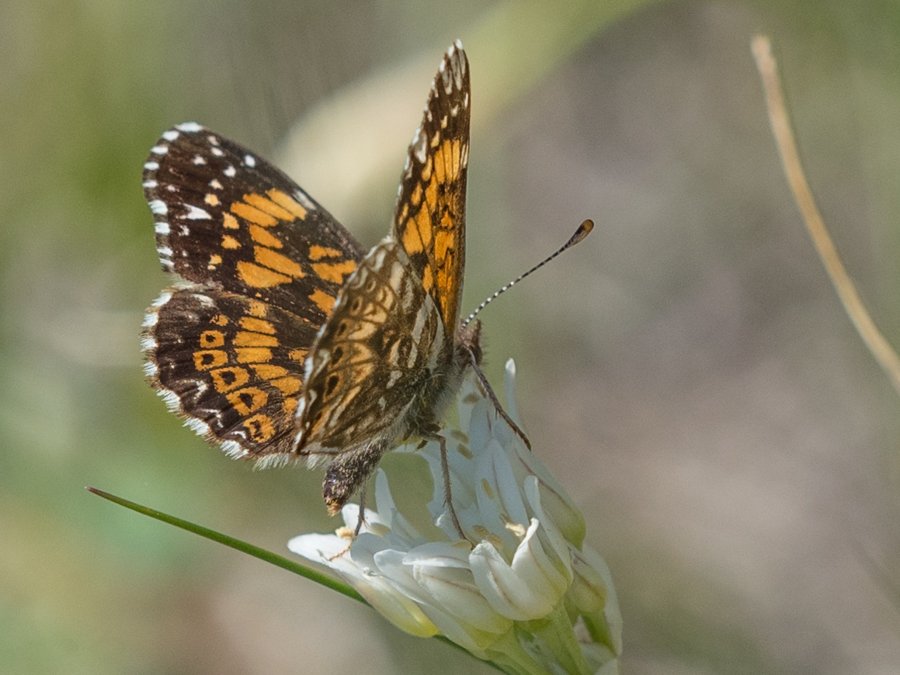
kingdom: Animalia
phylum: Arthropoda
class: Insecta
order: Lepidoptera
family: Nymphalidae
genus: Chlosyne
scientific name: Chlosyne gorgone
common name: Gorgone Checkerspot
